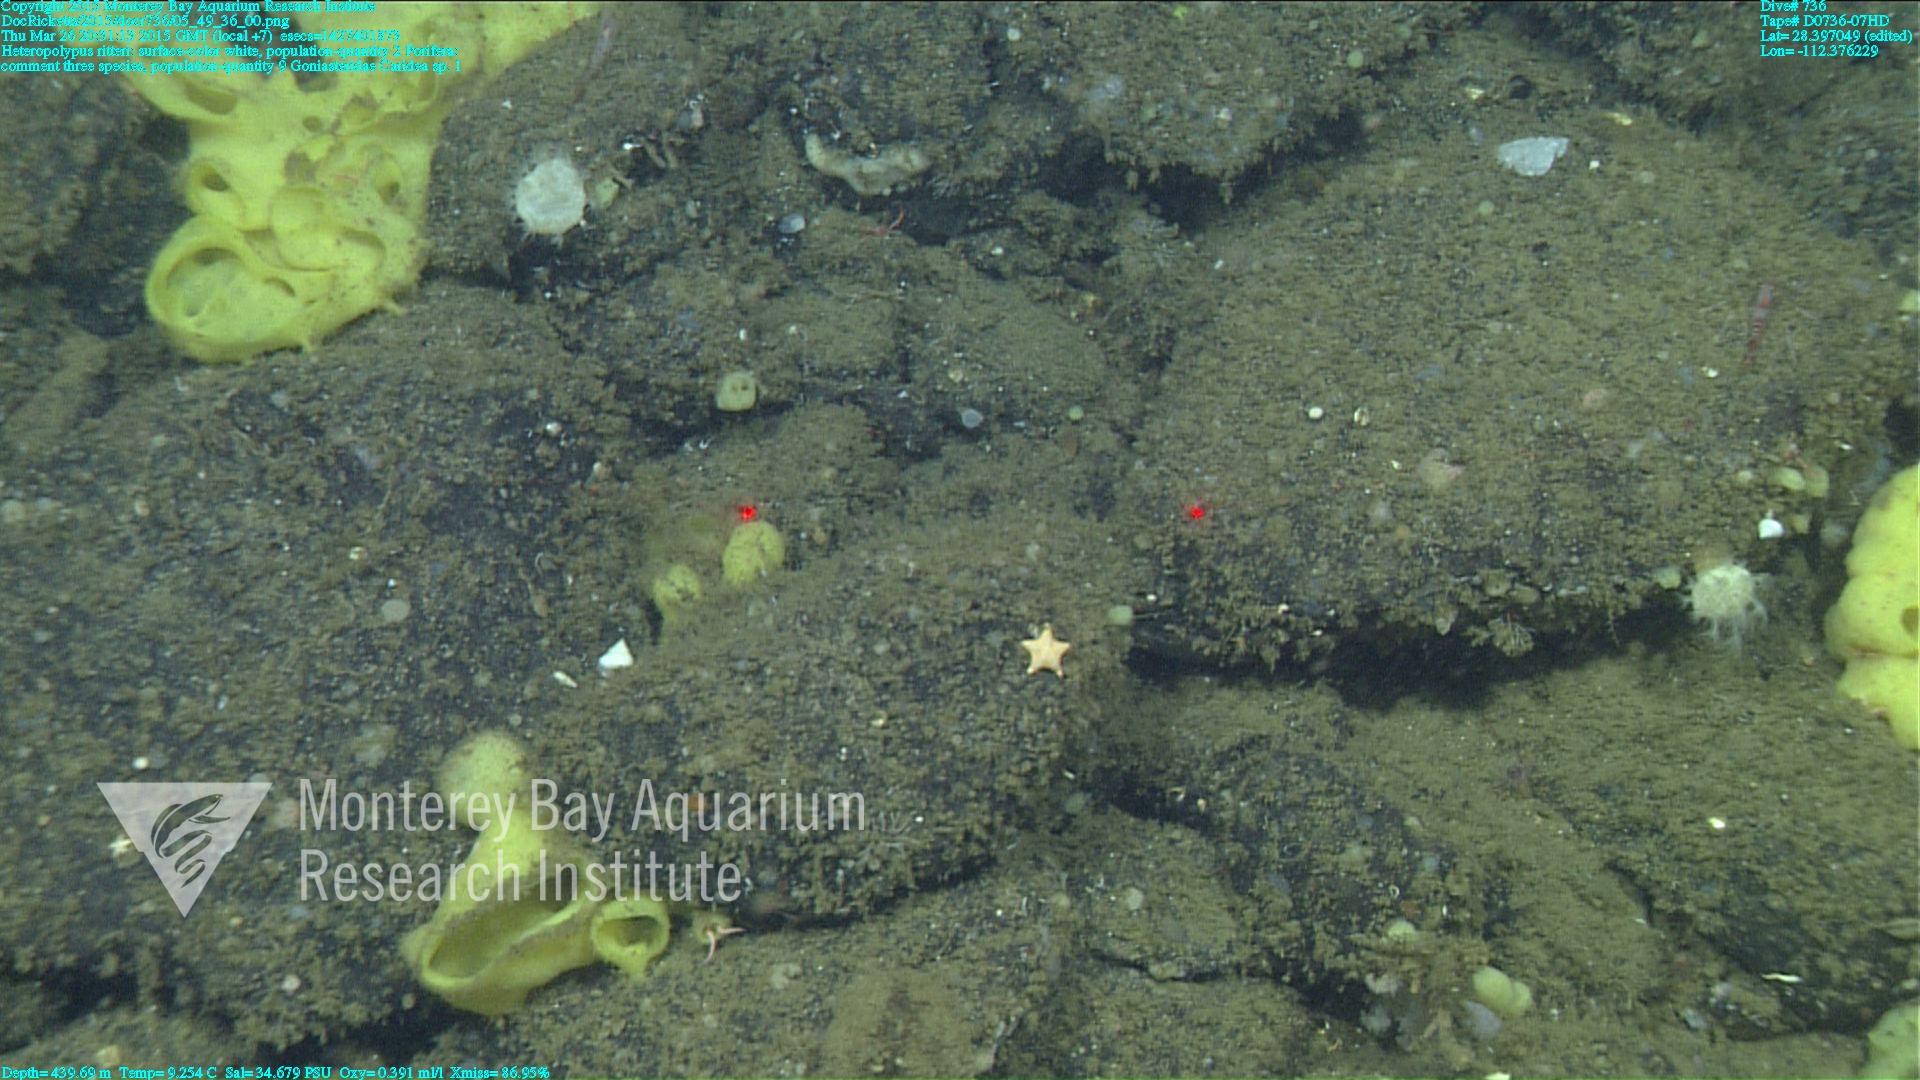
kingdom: Animalia
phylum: Cnidaria
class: Anthozoa
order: Scleralcyonacea
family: Coralliidae
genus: Heteropolypus
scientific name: Heteropolypus ritteri
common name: Ritter's soft coral
